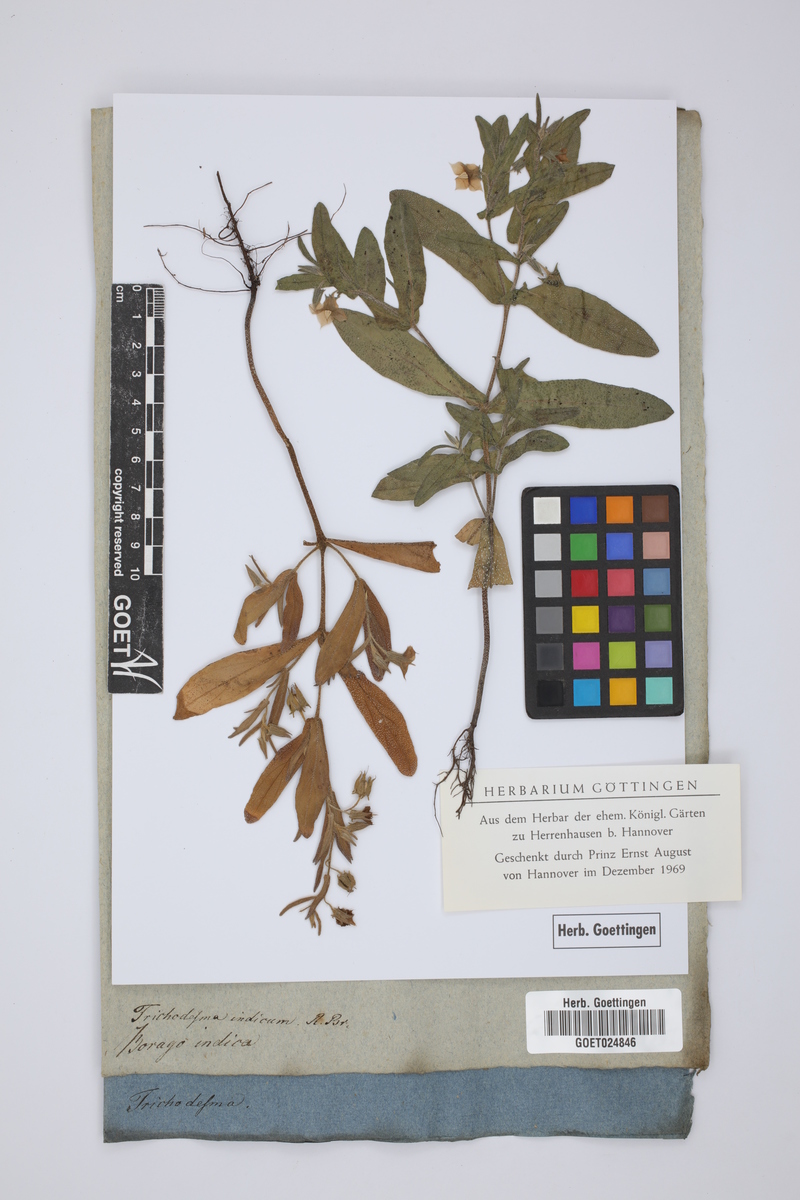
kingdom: Plantae
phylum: Tracheophyta
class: Magnoliopsida
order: Boraginales
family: Boraginaceae
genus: Trichodesma
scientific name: Trichodesma indicum
